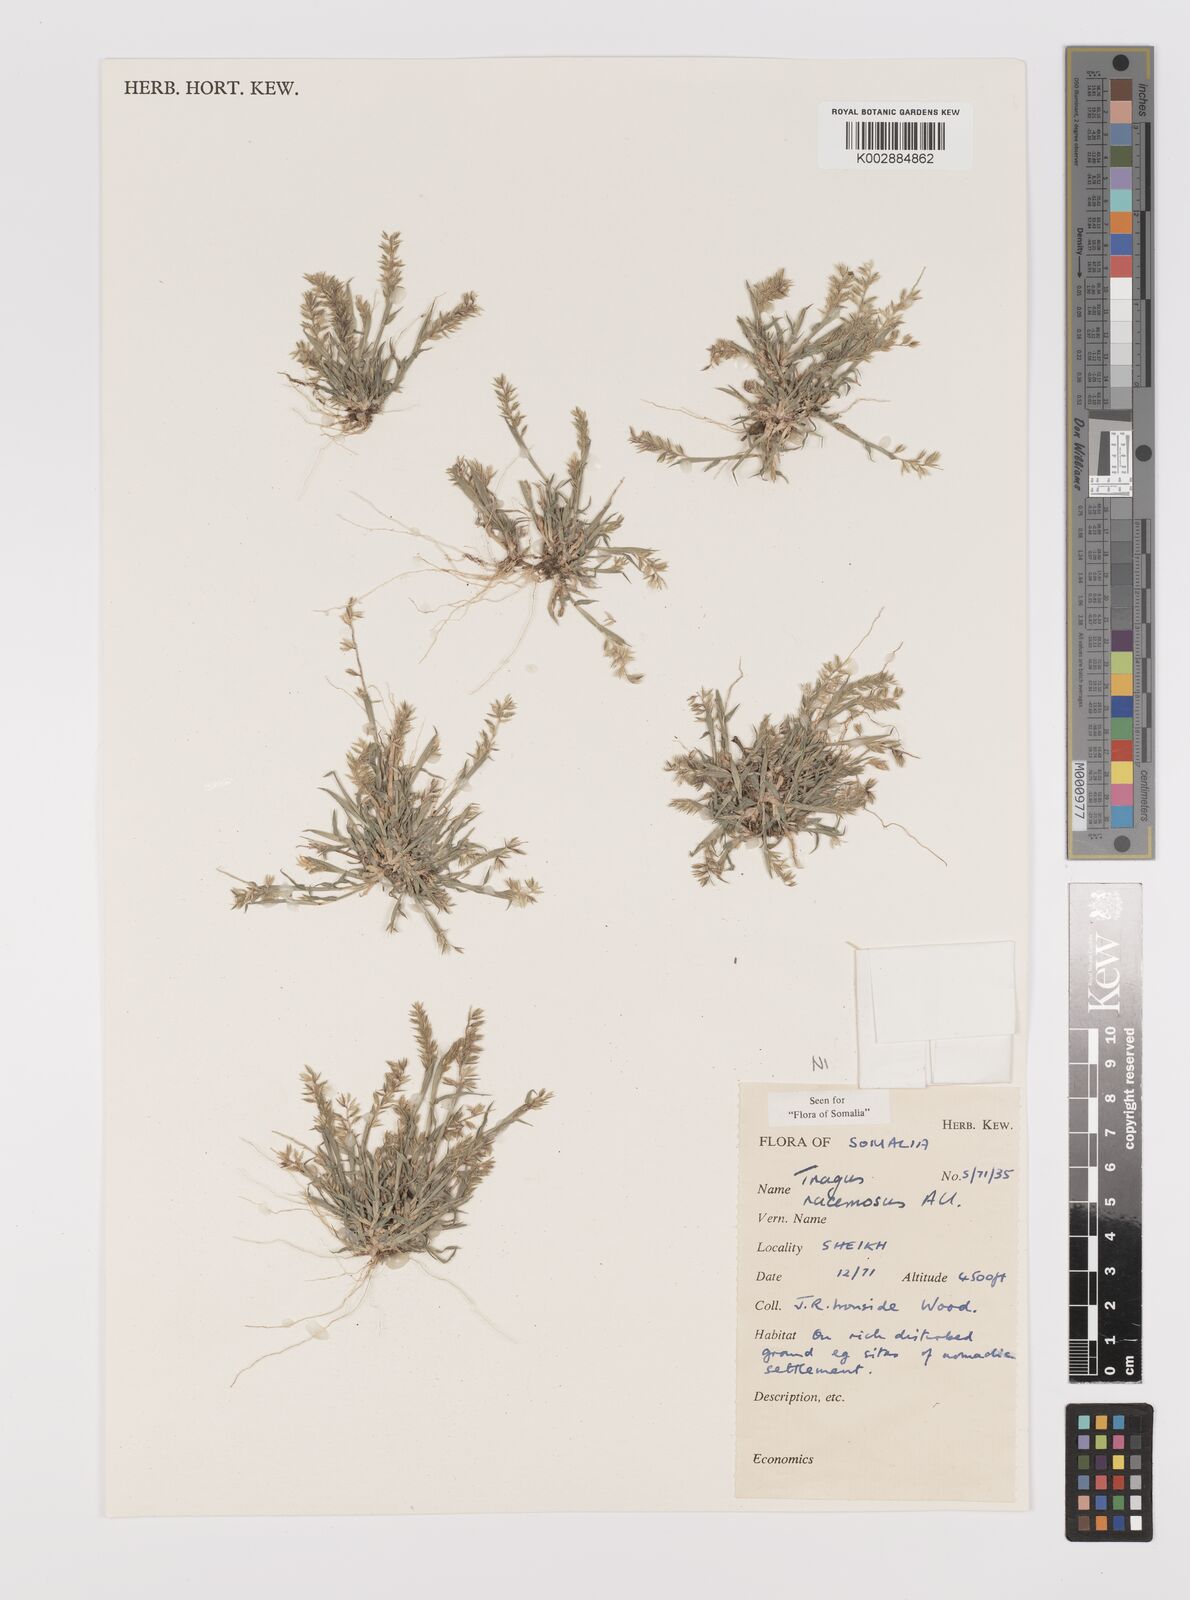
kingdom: Plantae
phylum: Tracheophyta
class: Liliopsida
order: Poales
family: Poaceae
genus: Tragus
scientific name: Tragus racemosus
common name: European bur-grass
